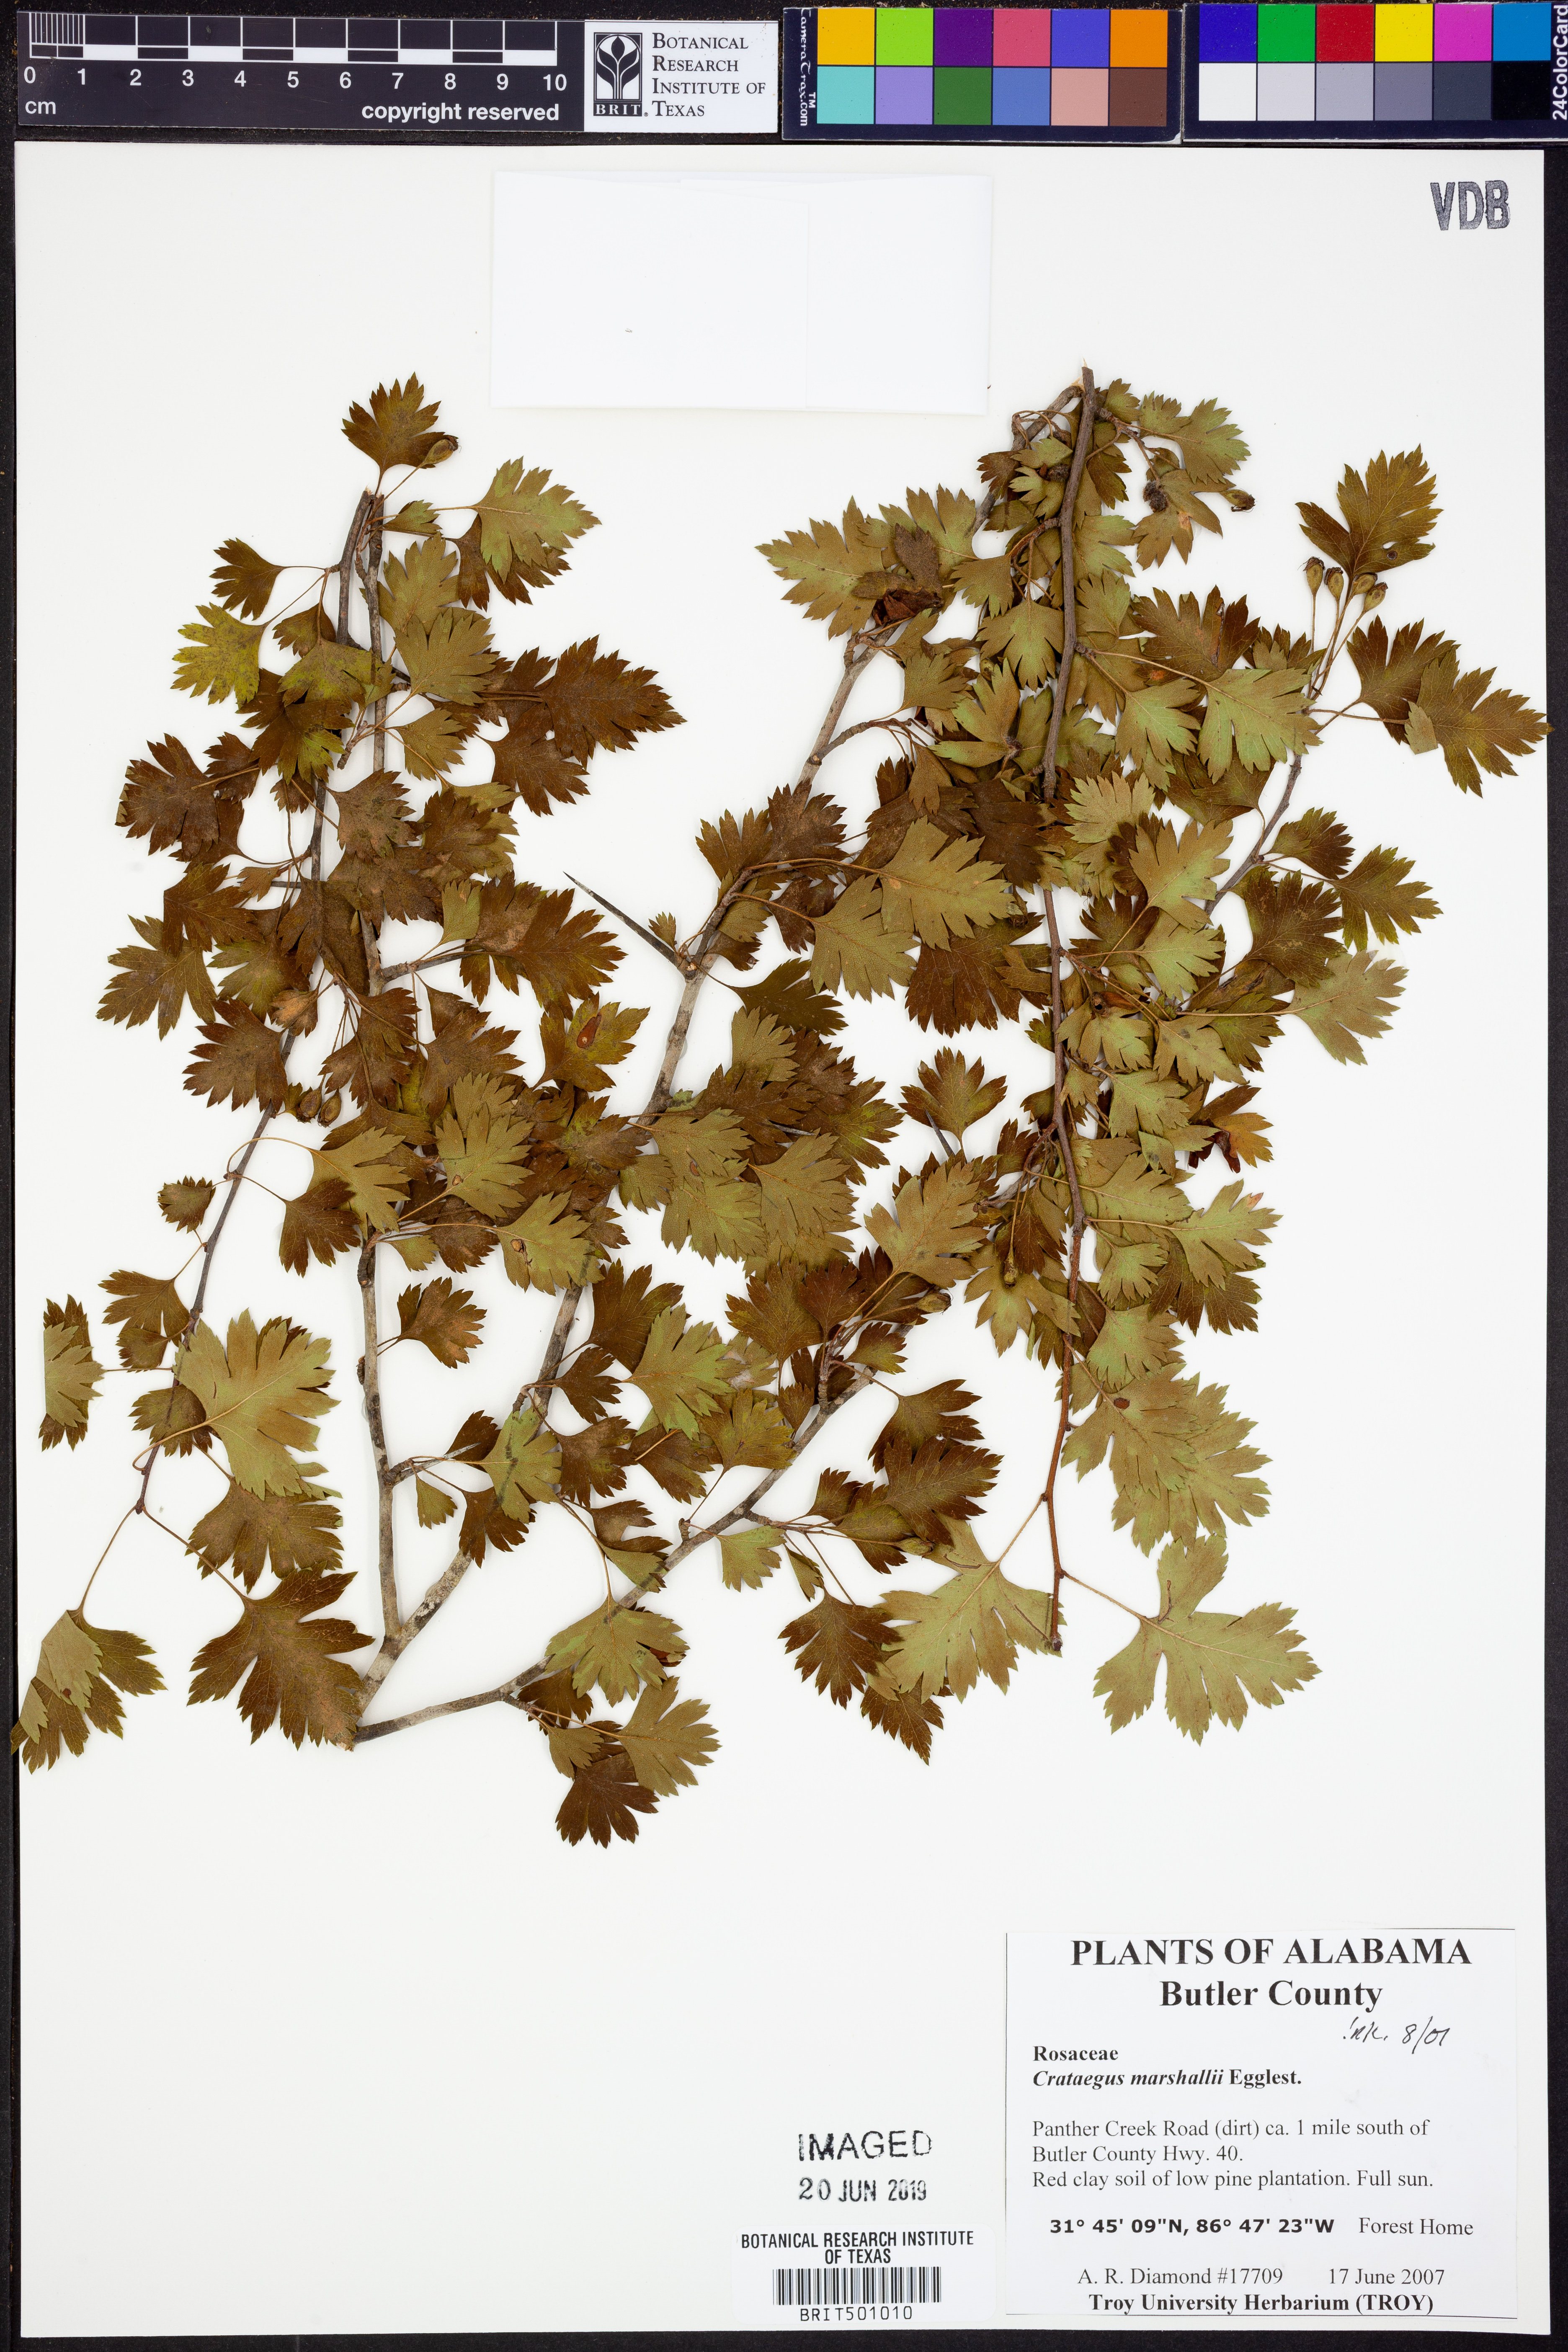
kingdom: Plantae
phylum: Tracheophyta
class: Magnoliopsida
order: Rosales
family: Rosaceae
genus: Crataegus
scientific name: Crataegus marshallii
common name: Parsley-hawthorn
